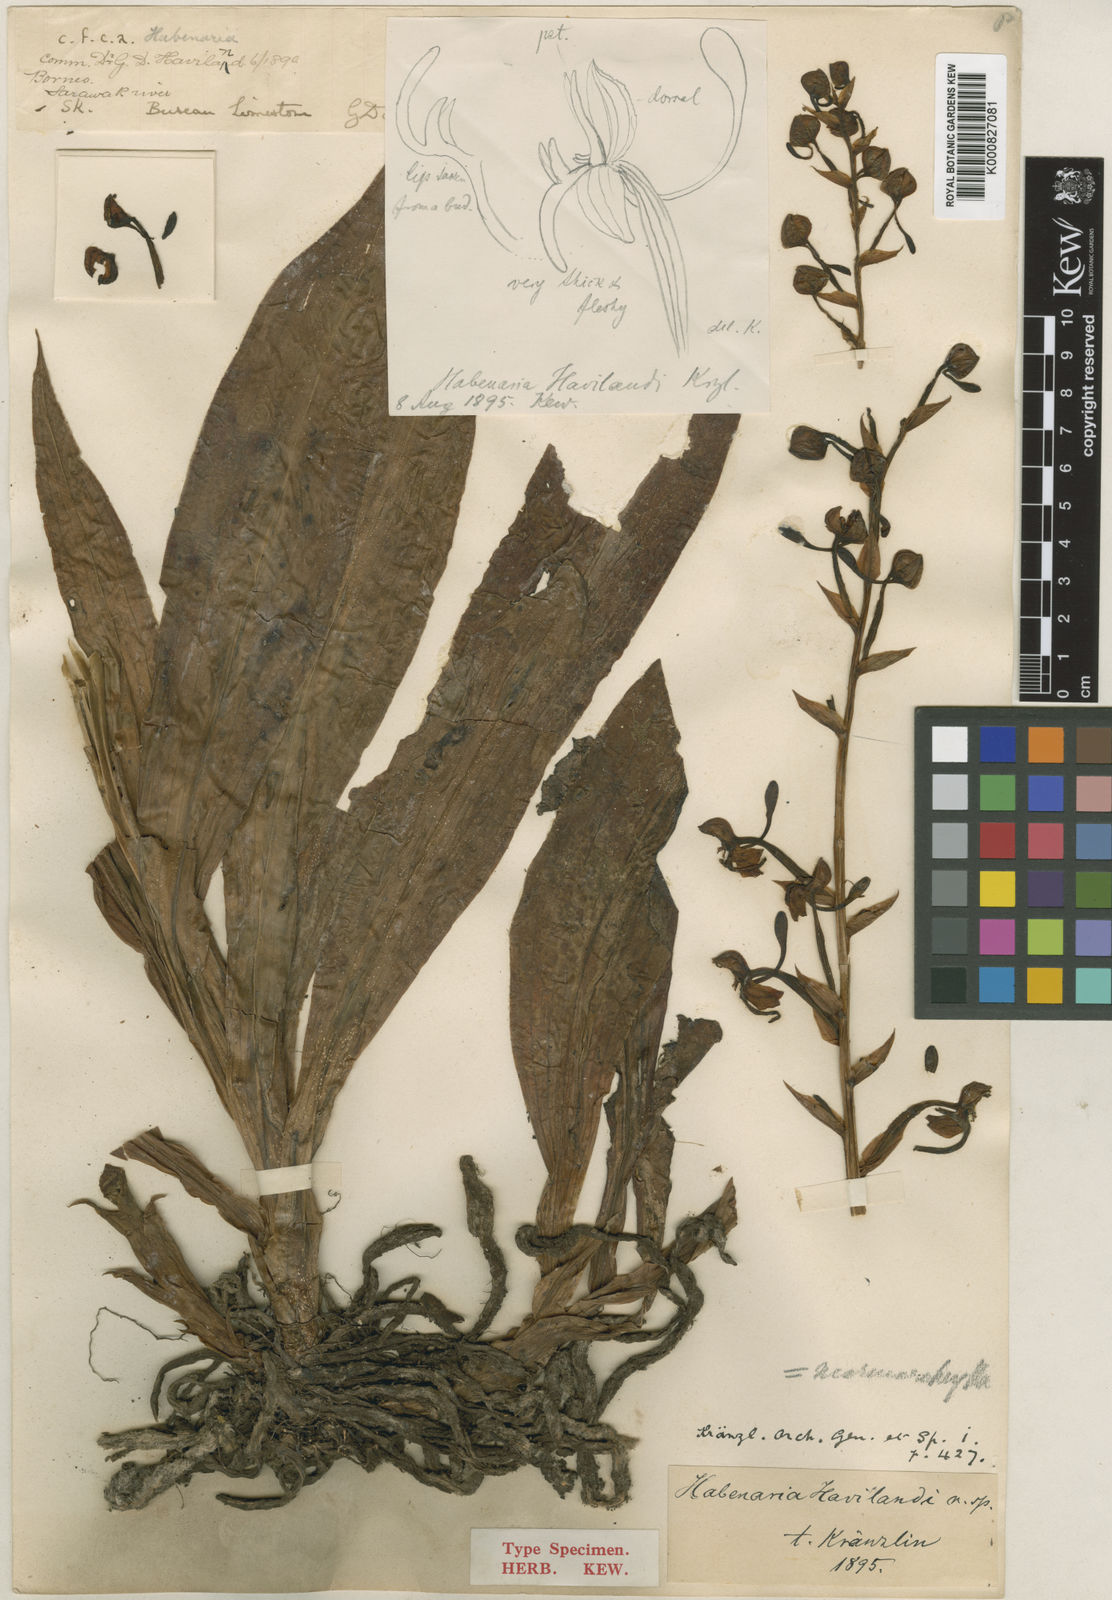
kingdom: Plantae
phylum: Tracheophyta
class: Liliopsida
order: Asparagales
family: Orchidaceae
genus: Habenaria
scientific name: Habenaria lobbii
